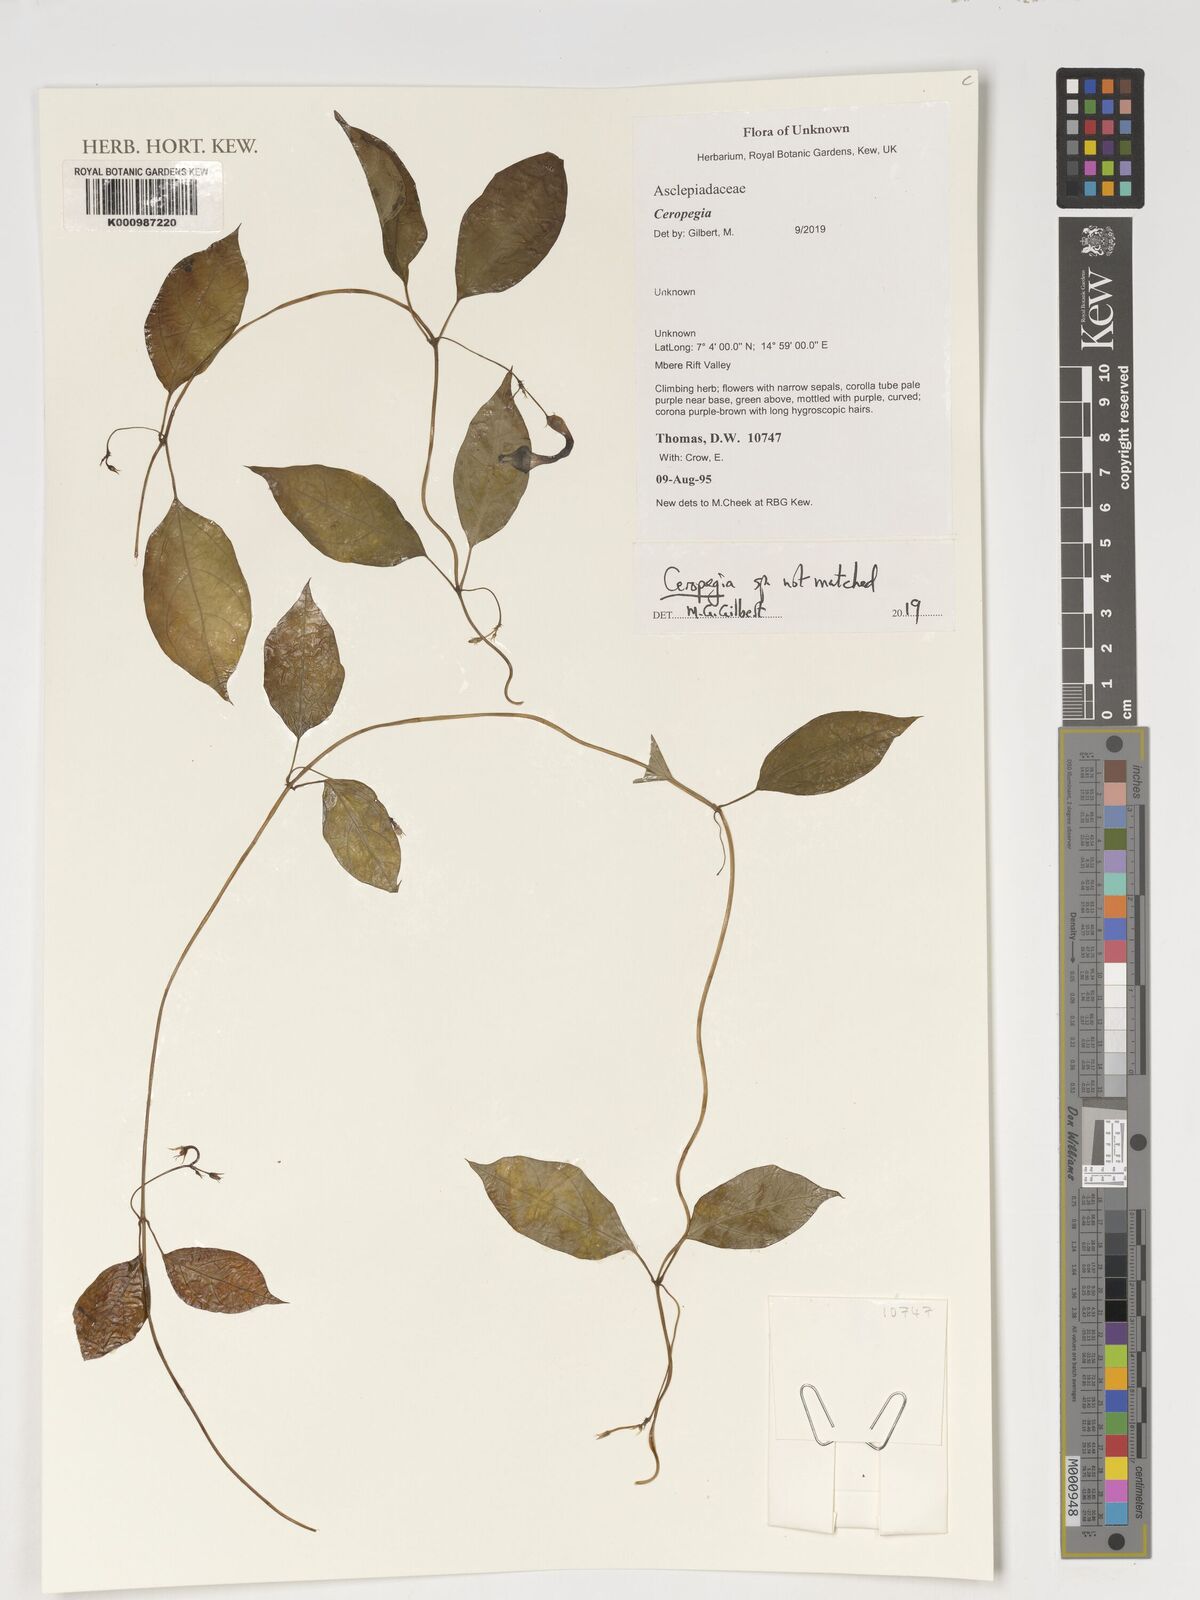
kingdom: Plantae
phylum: Tracheophyta
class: Magnoliopsida
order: Gentianales
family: Apocynaceae
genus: Ceropegia
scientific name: Ceropegia
